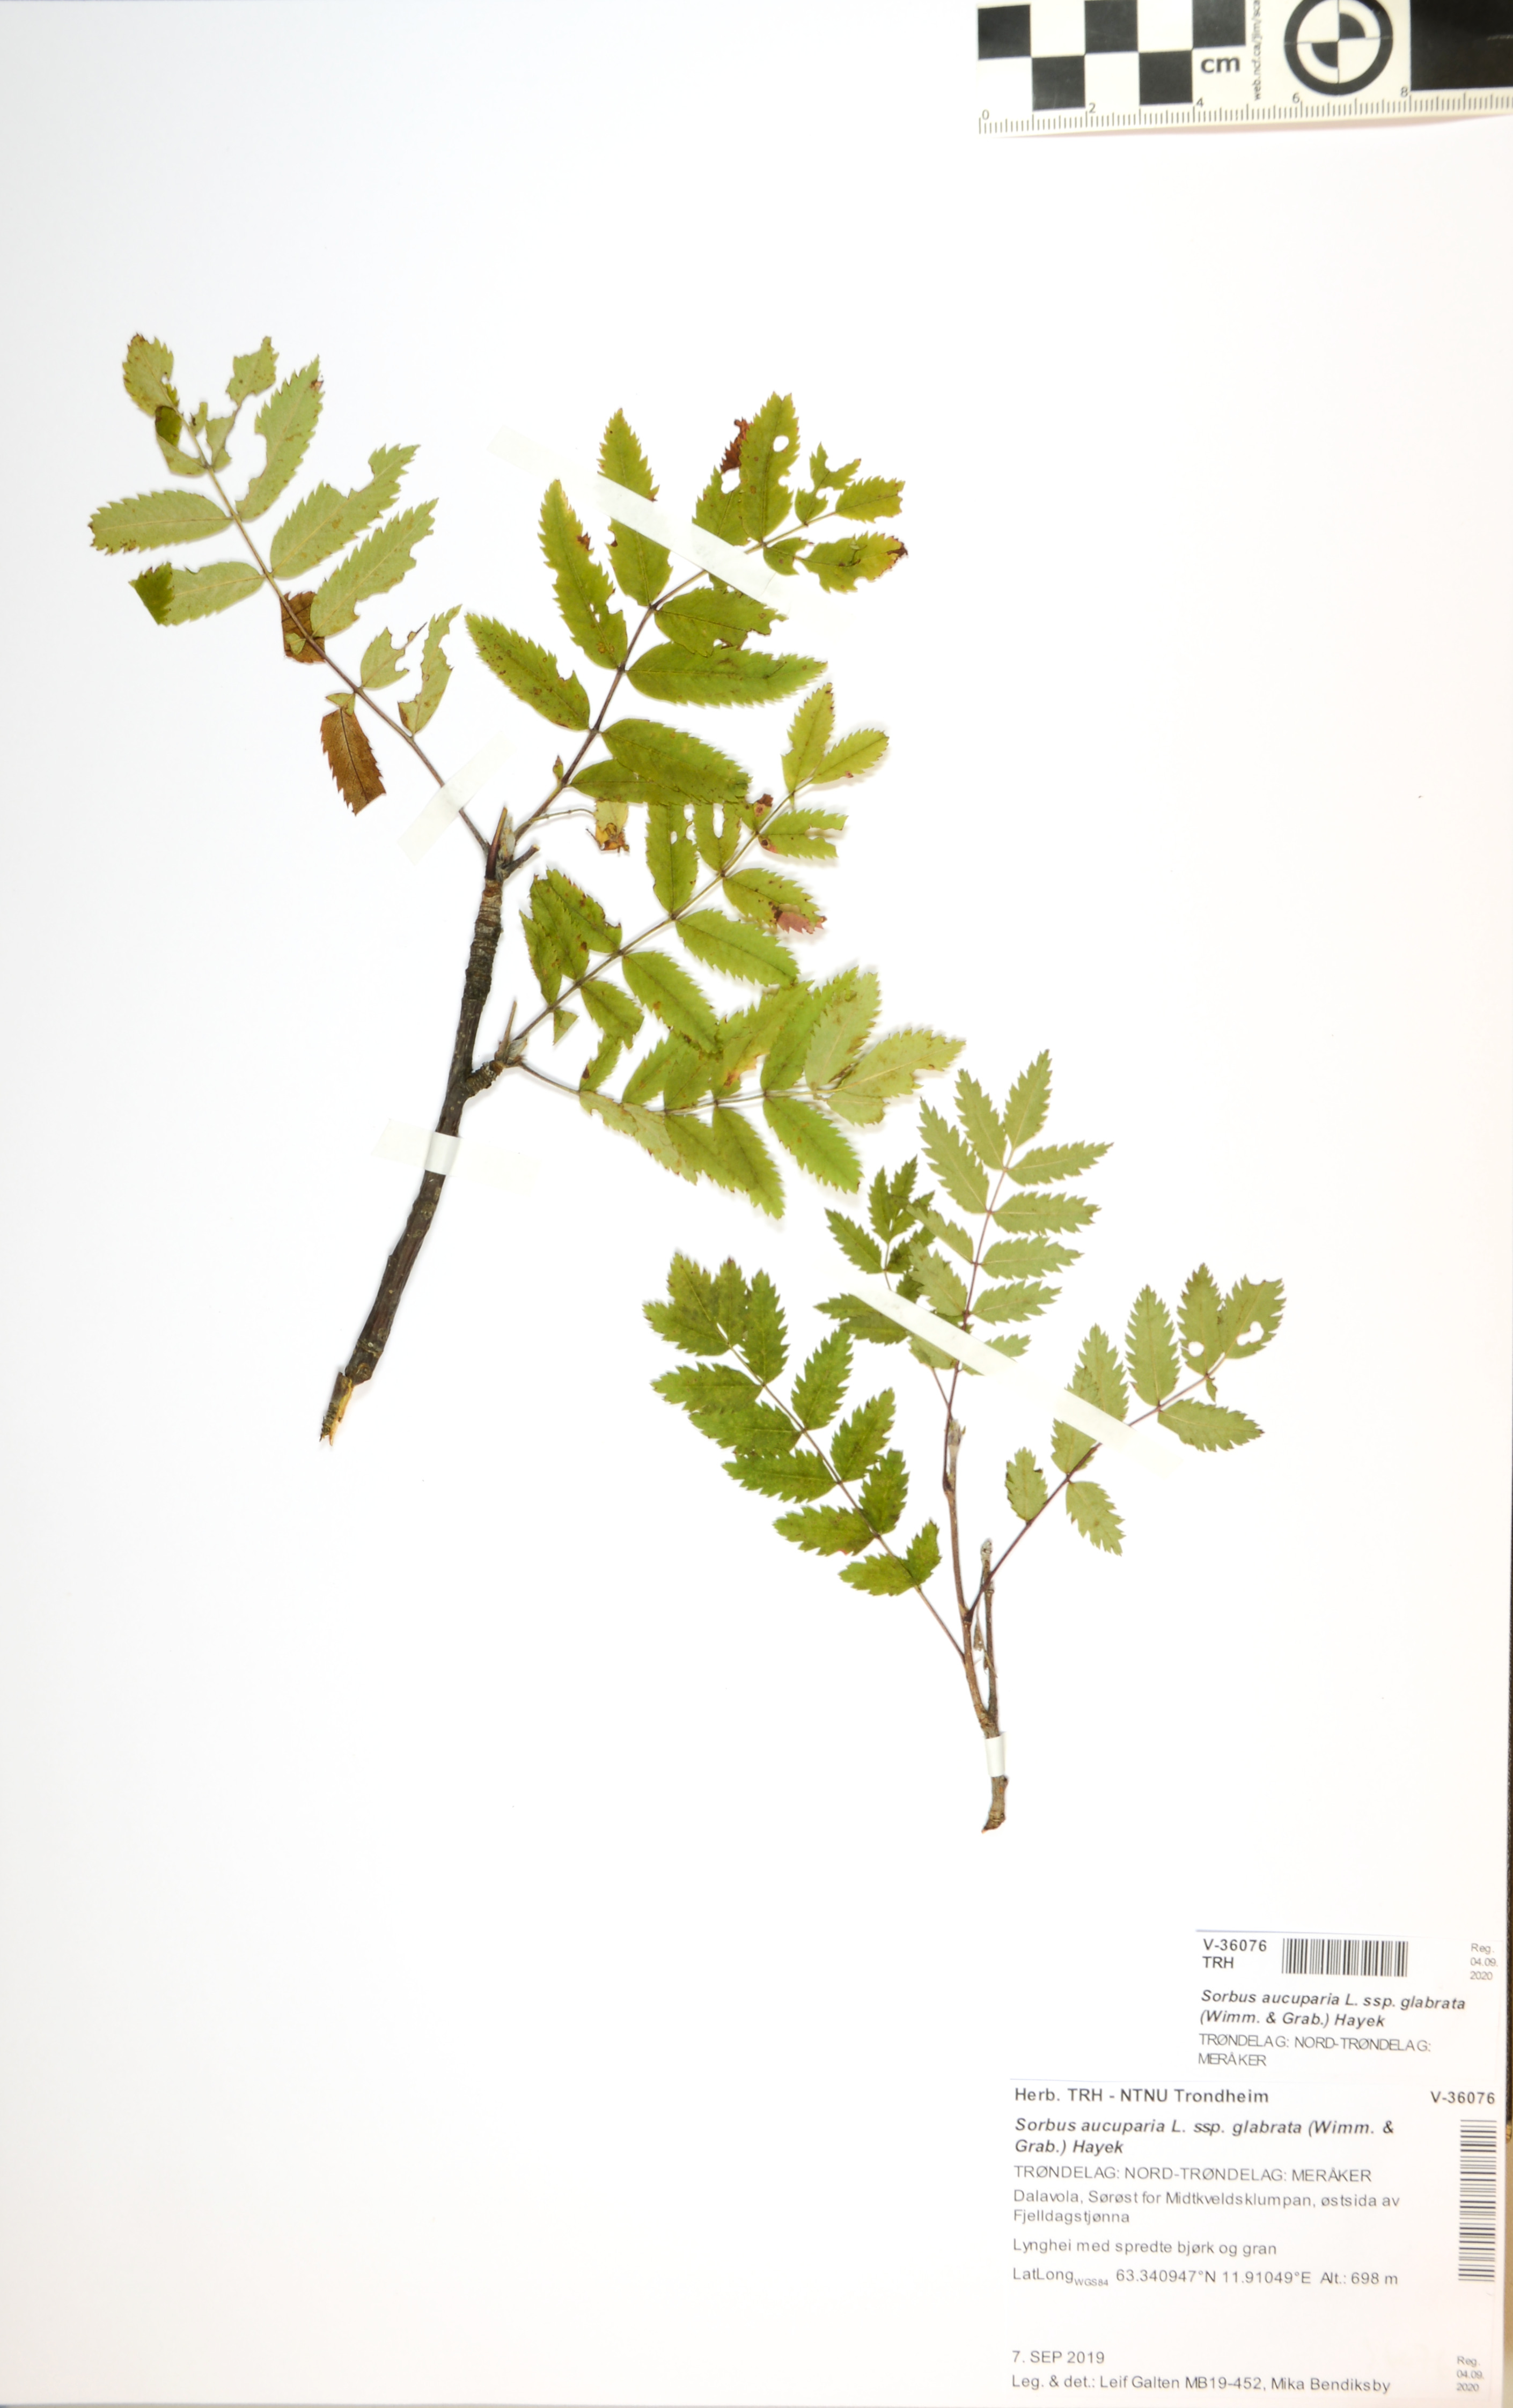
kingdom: Plantae
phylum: Tracheophyta
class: Magnoliopsida
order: Rosales
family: Rosaceae
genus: Sorbus
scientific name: Sorbus aucuparia
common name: Rowan
